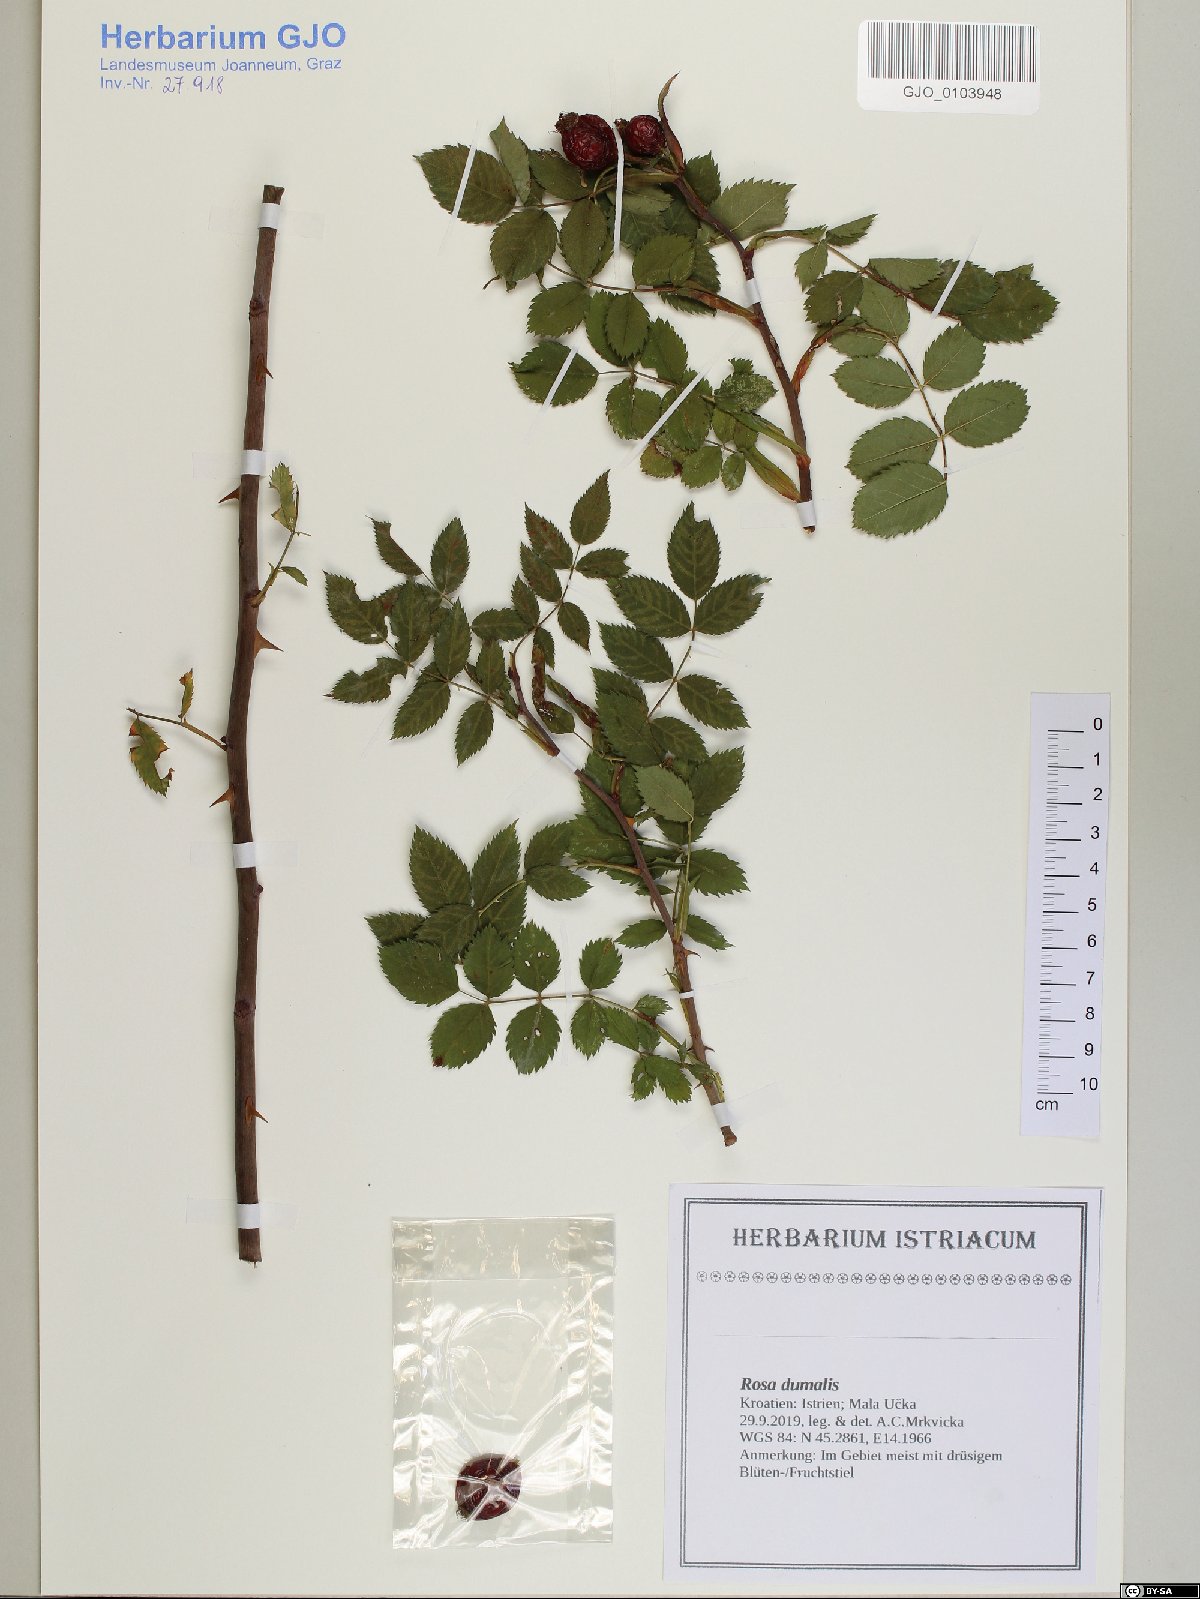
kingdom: Plantae
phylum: Tracheophyta
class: Magnoliopsida
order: Rosales
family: Rosaceae
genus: Rosa
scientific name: Rosa dumalis
